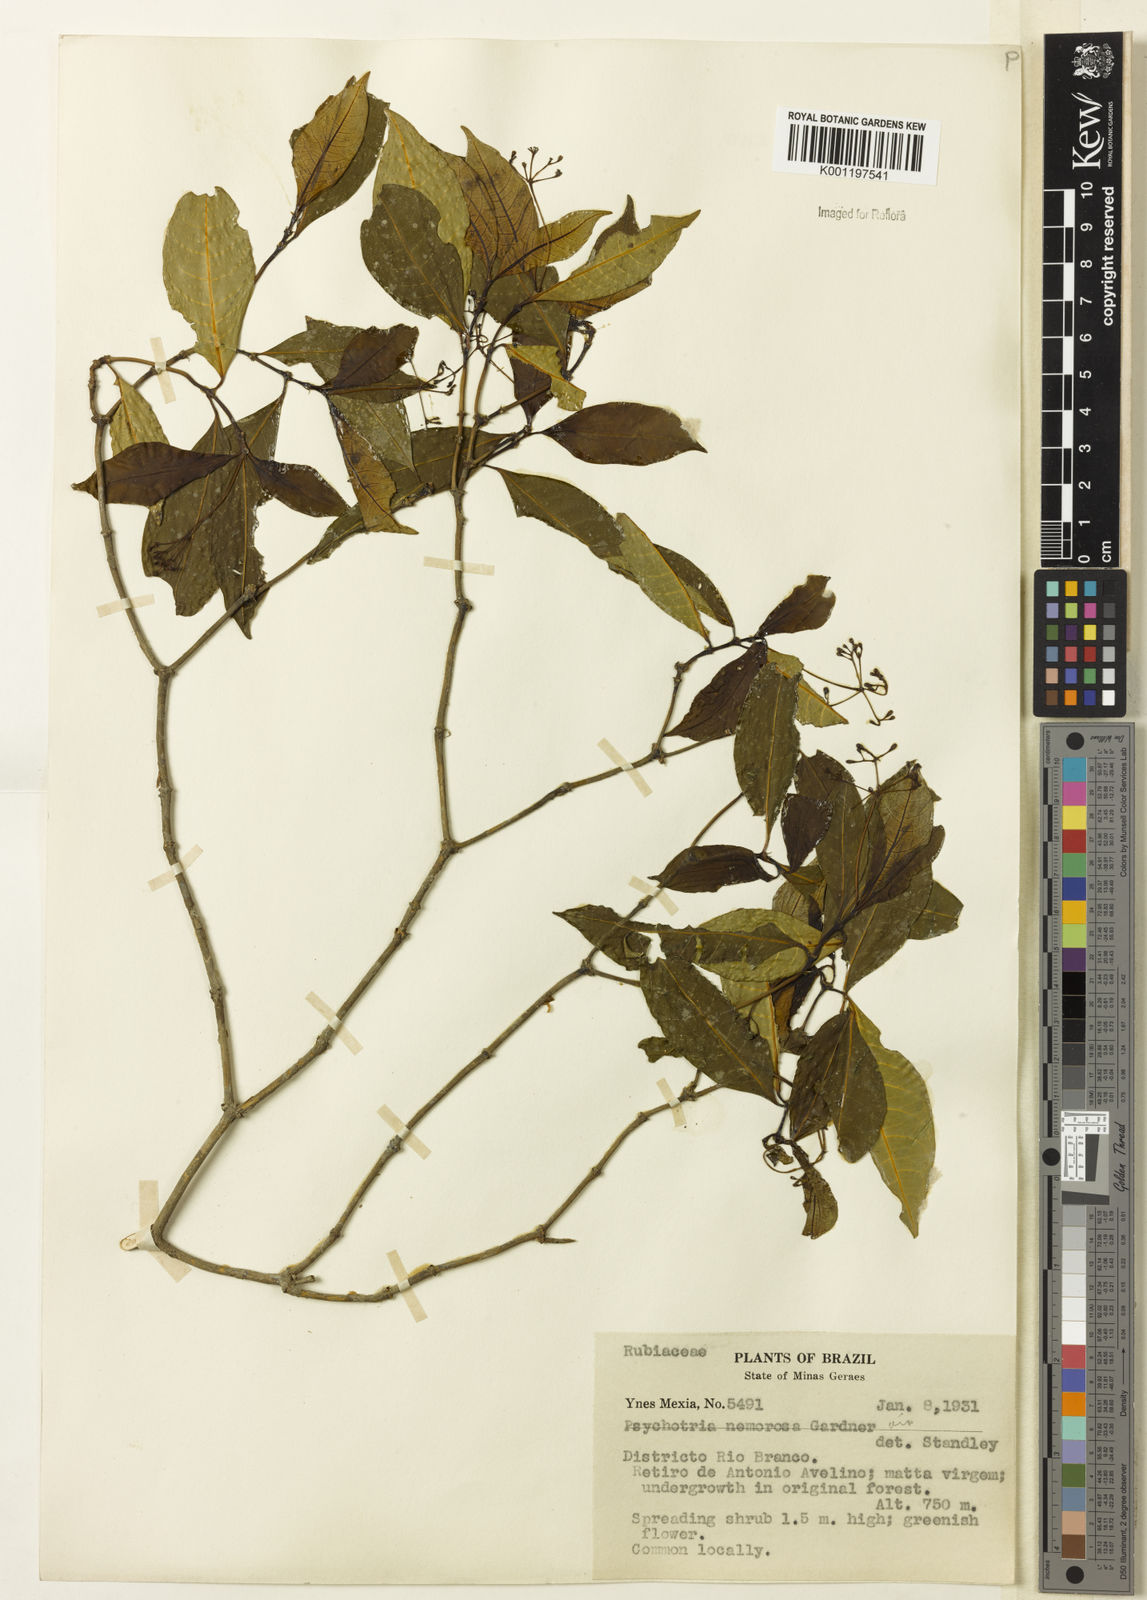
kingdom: Plantae
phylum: Tracheophyta
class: Magnoliopsida
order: Gentianales
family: Rubiaceae
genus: Psychotria
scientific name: Psychotria nemorosa
